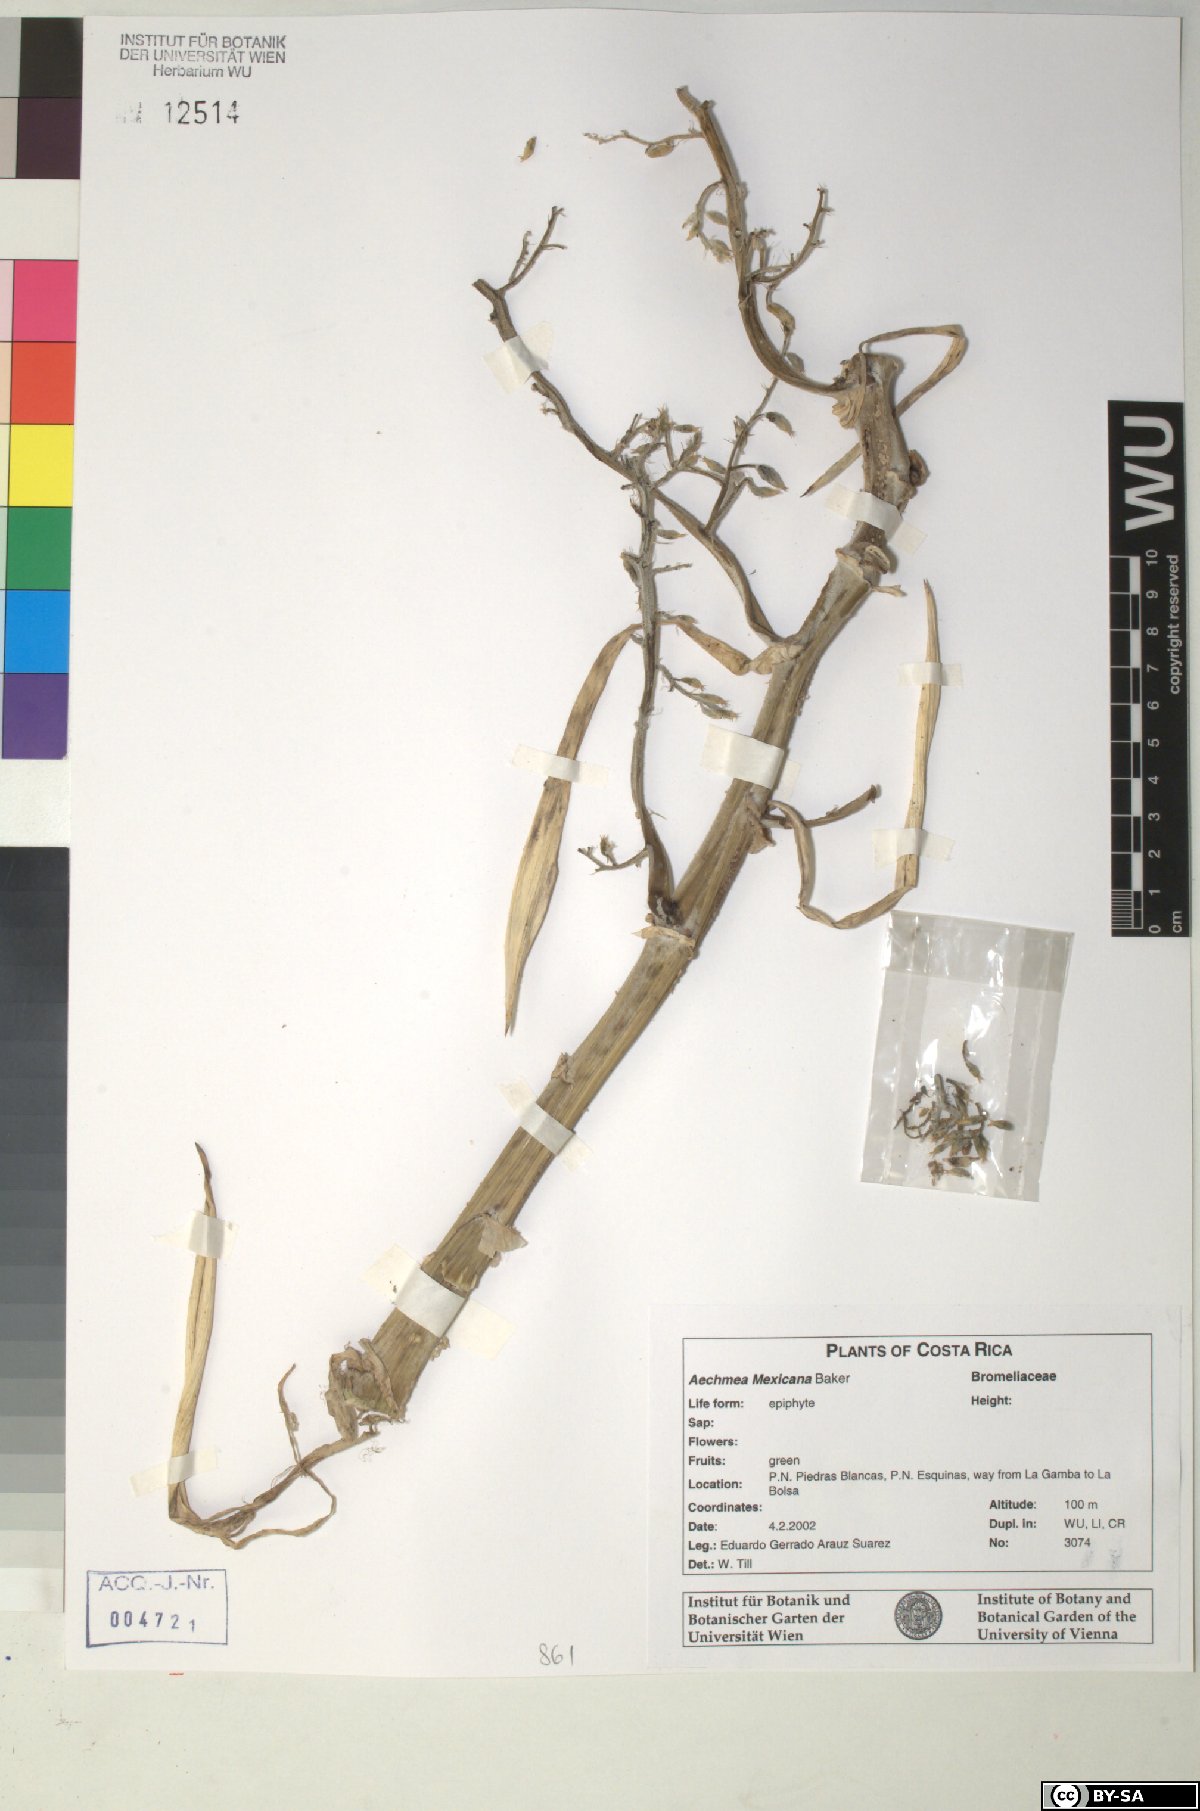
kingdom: Plantae
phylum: Tracheophyta
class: Liliopsida
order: Poales
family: Bromeliaceae
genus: Aechmea
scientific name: Aechmea mexicana
